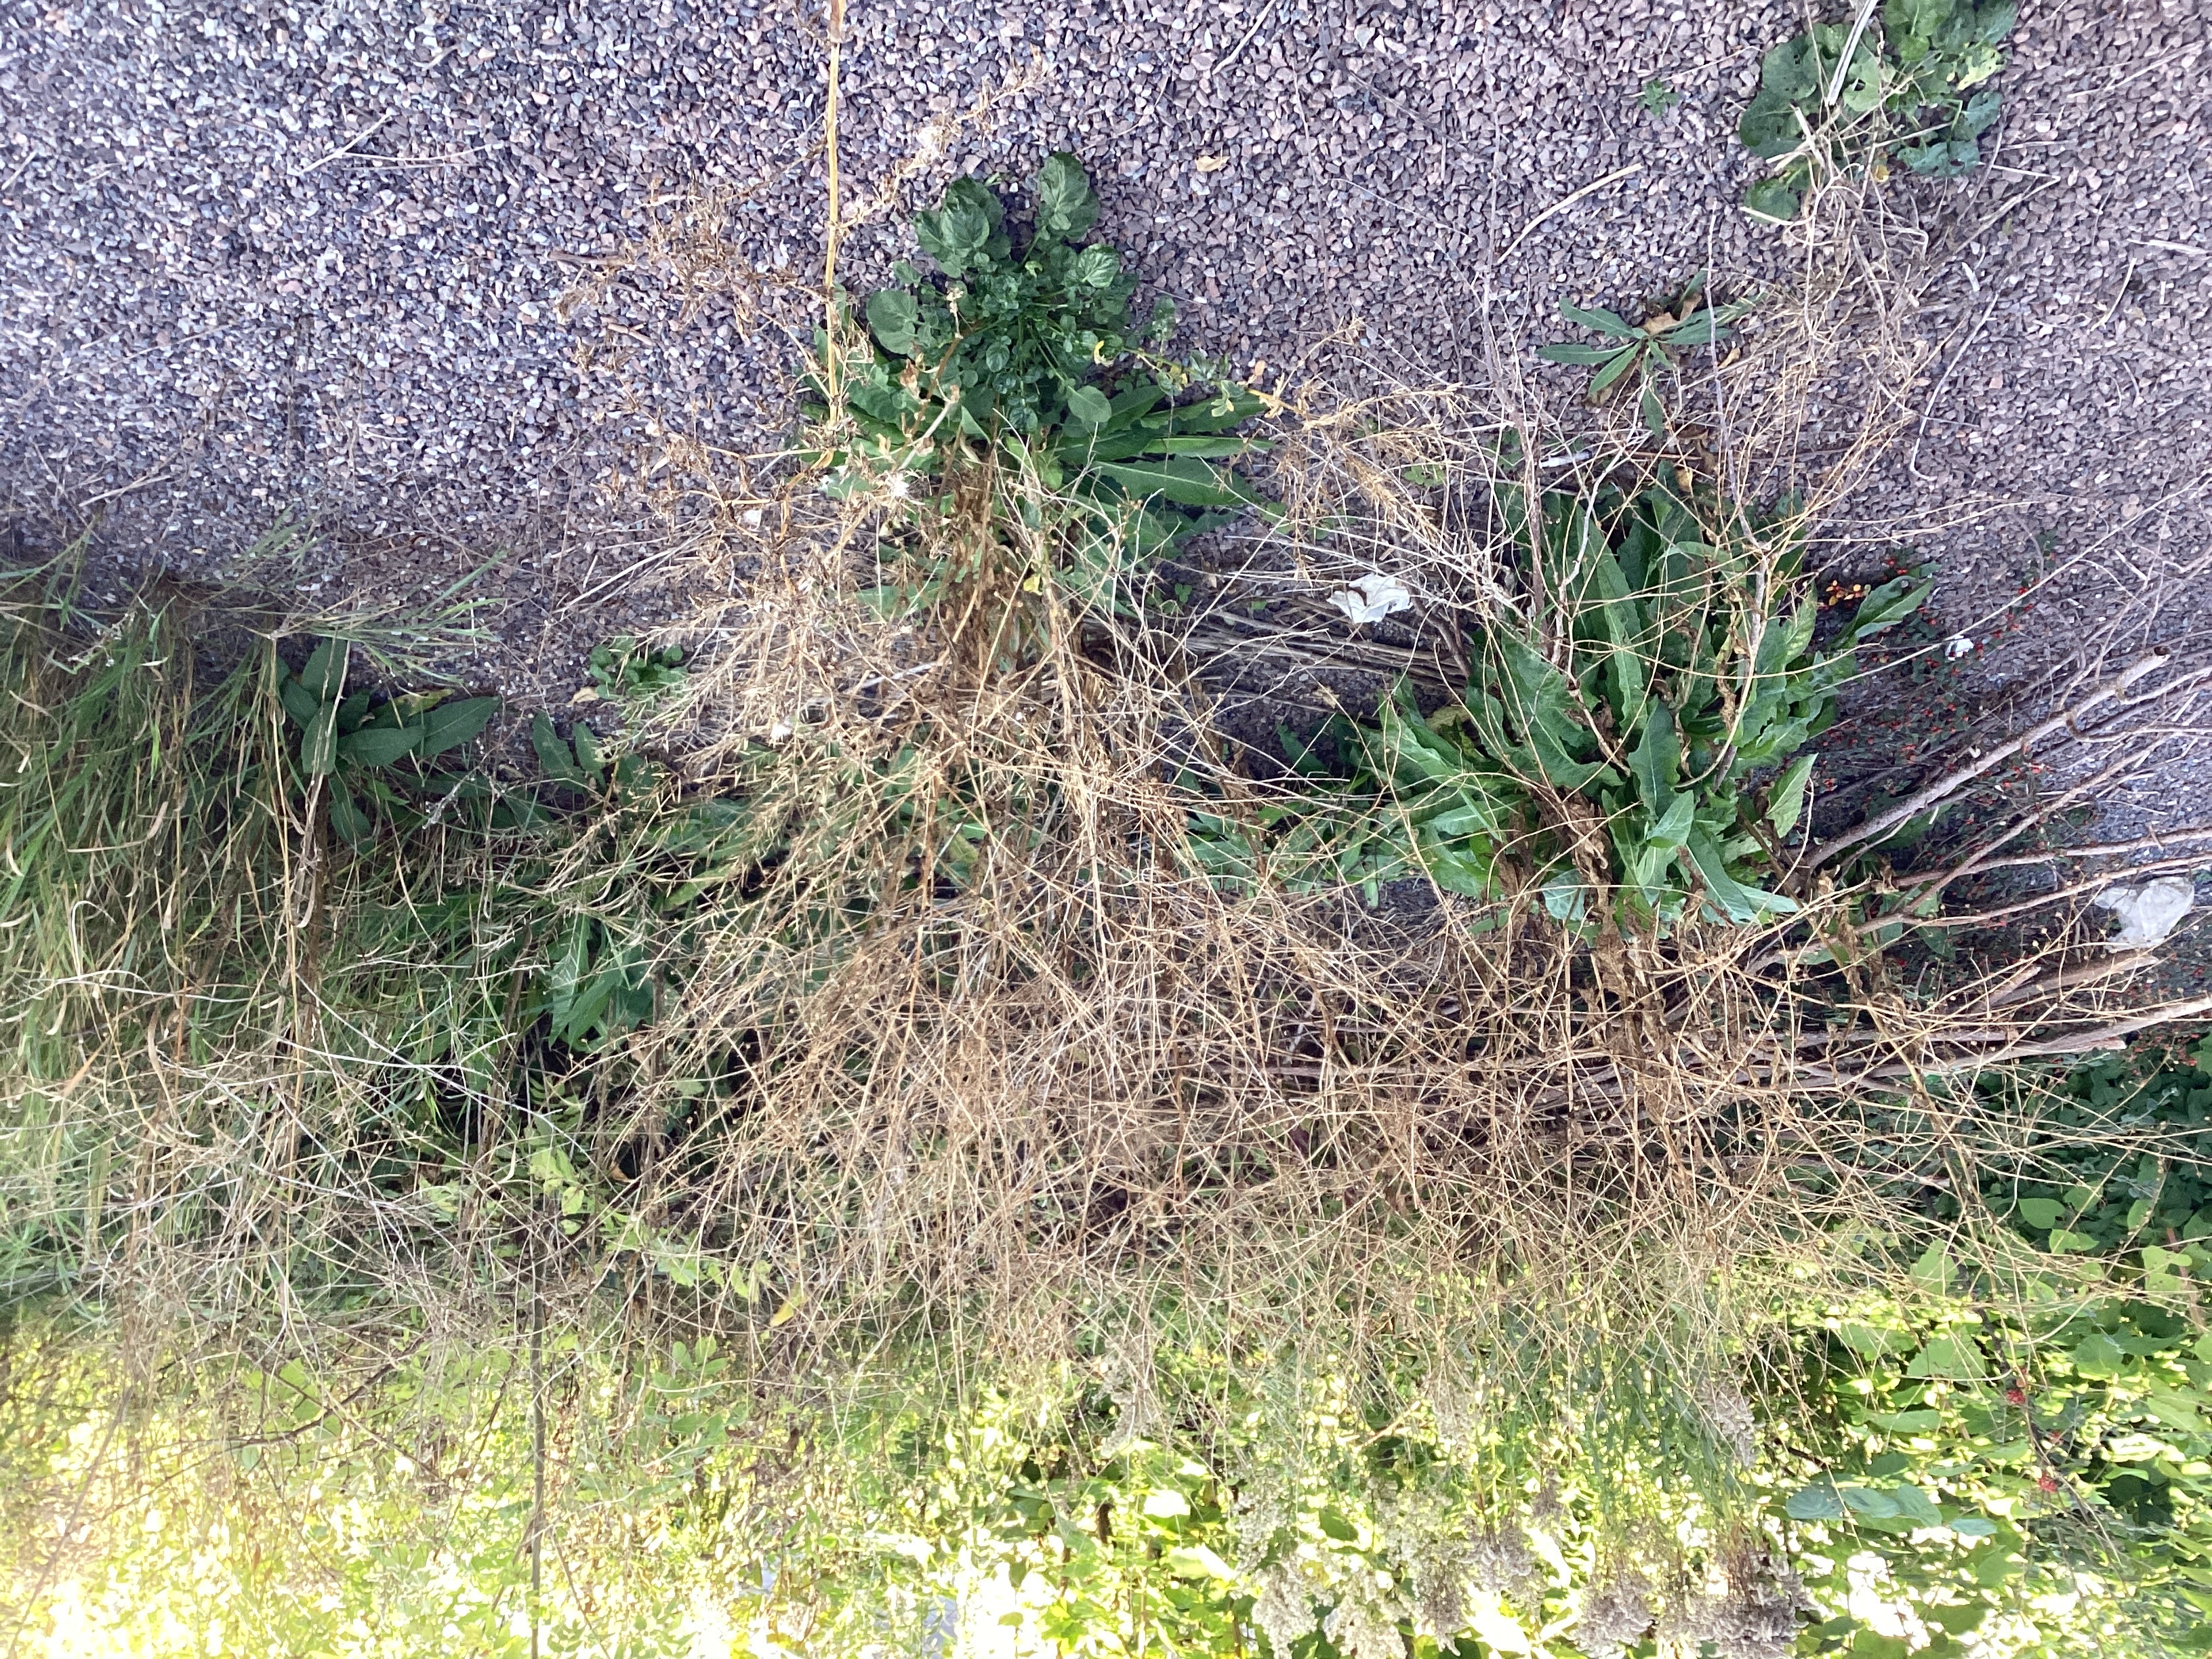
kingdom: Plantae
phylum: Tracheophyta
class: Magnoliopsida
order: Brassicales
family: Brassicaceae
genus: Bunias
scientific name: Bunias orientalis
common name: russekål
